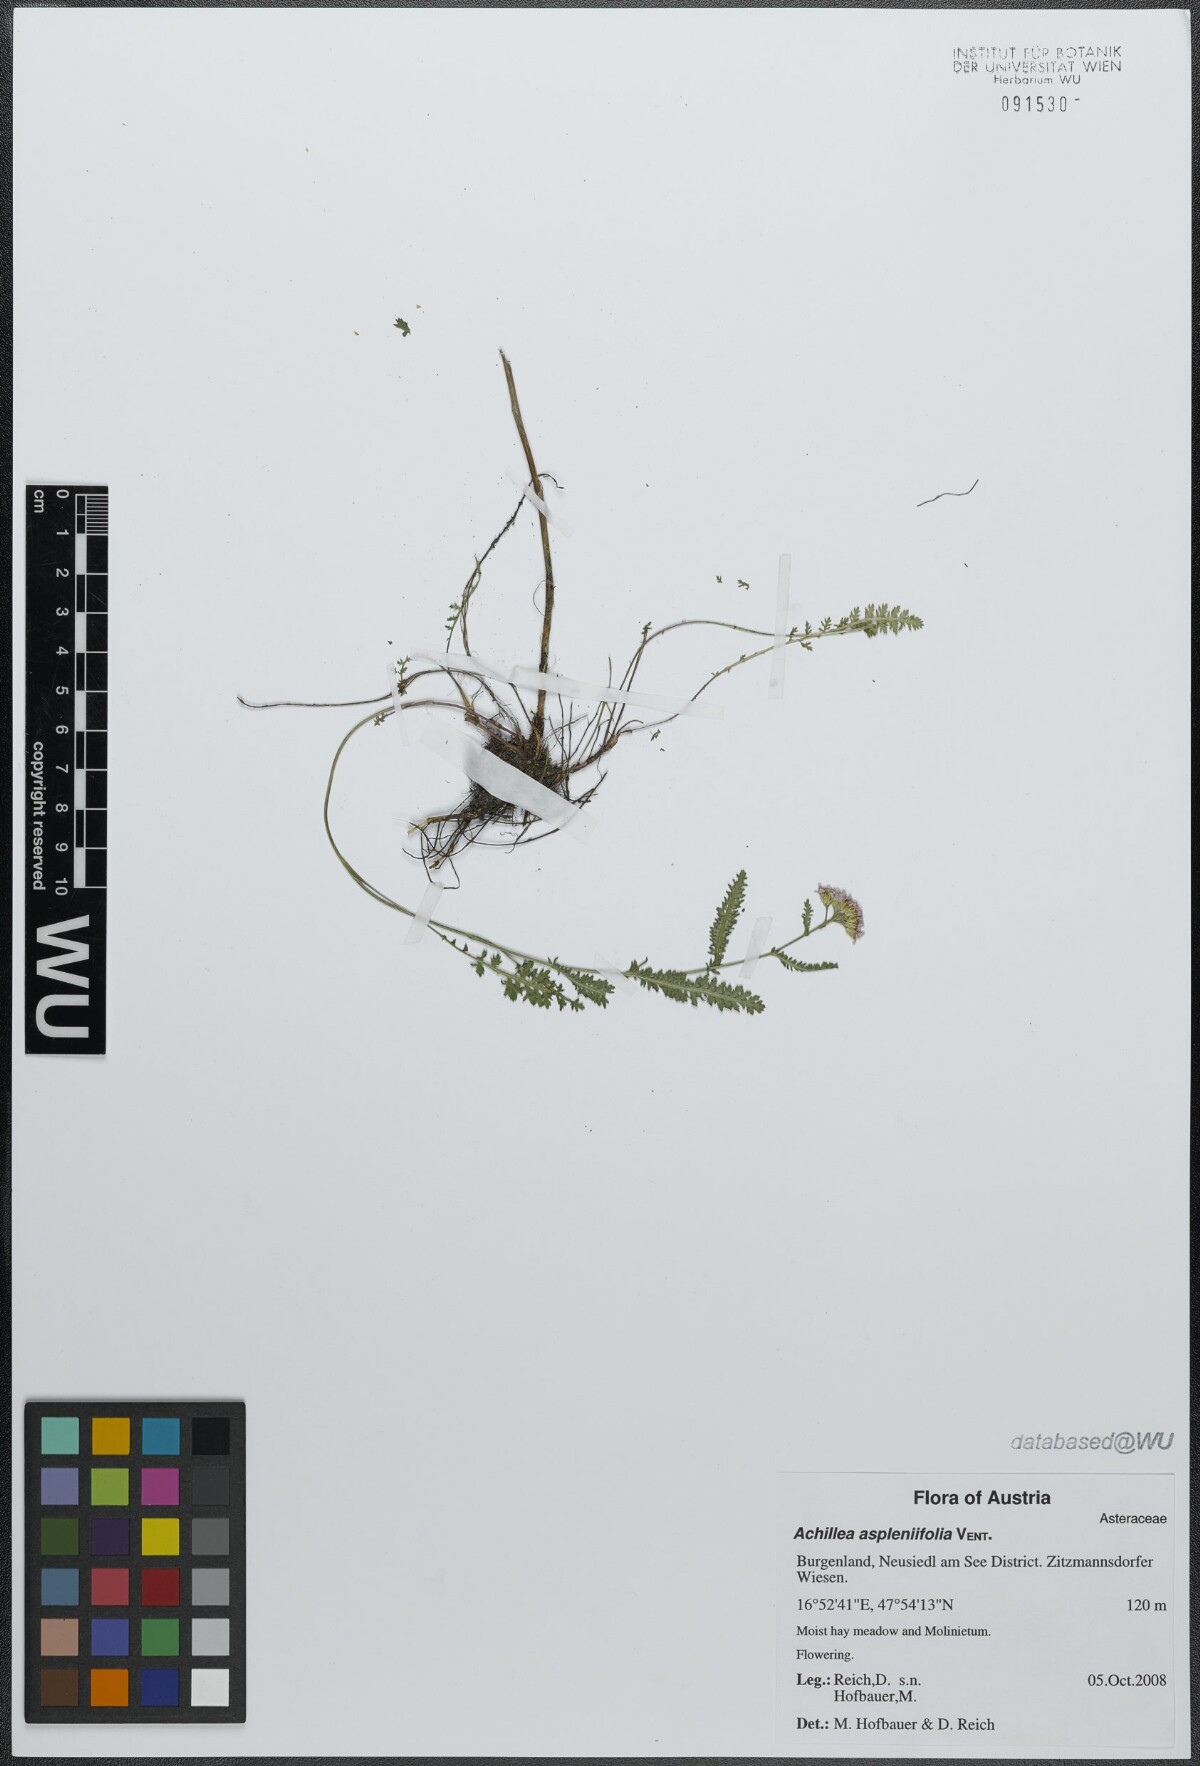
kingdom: Plantae
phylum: Tracheophyta
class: Magnoliopsida
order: Asterales
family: Asteraceae
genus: Achillea
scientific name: Achillea aspleniifolia
